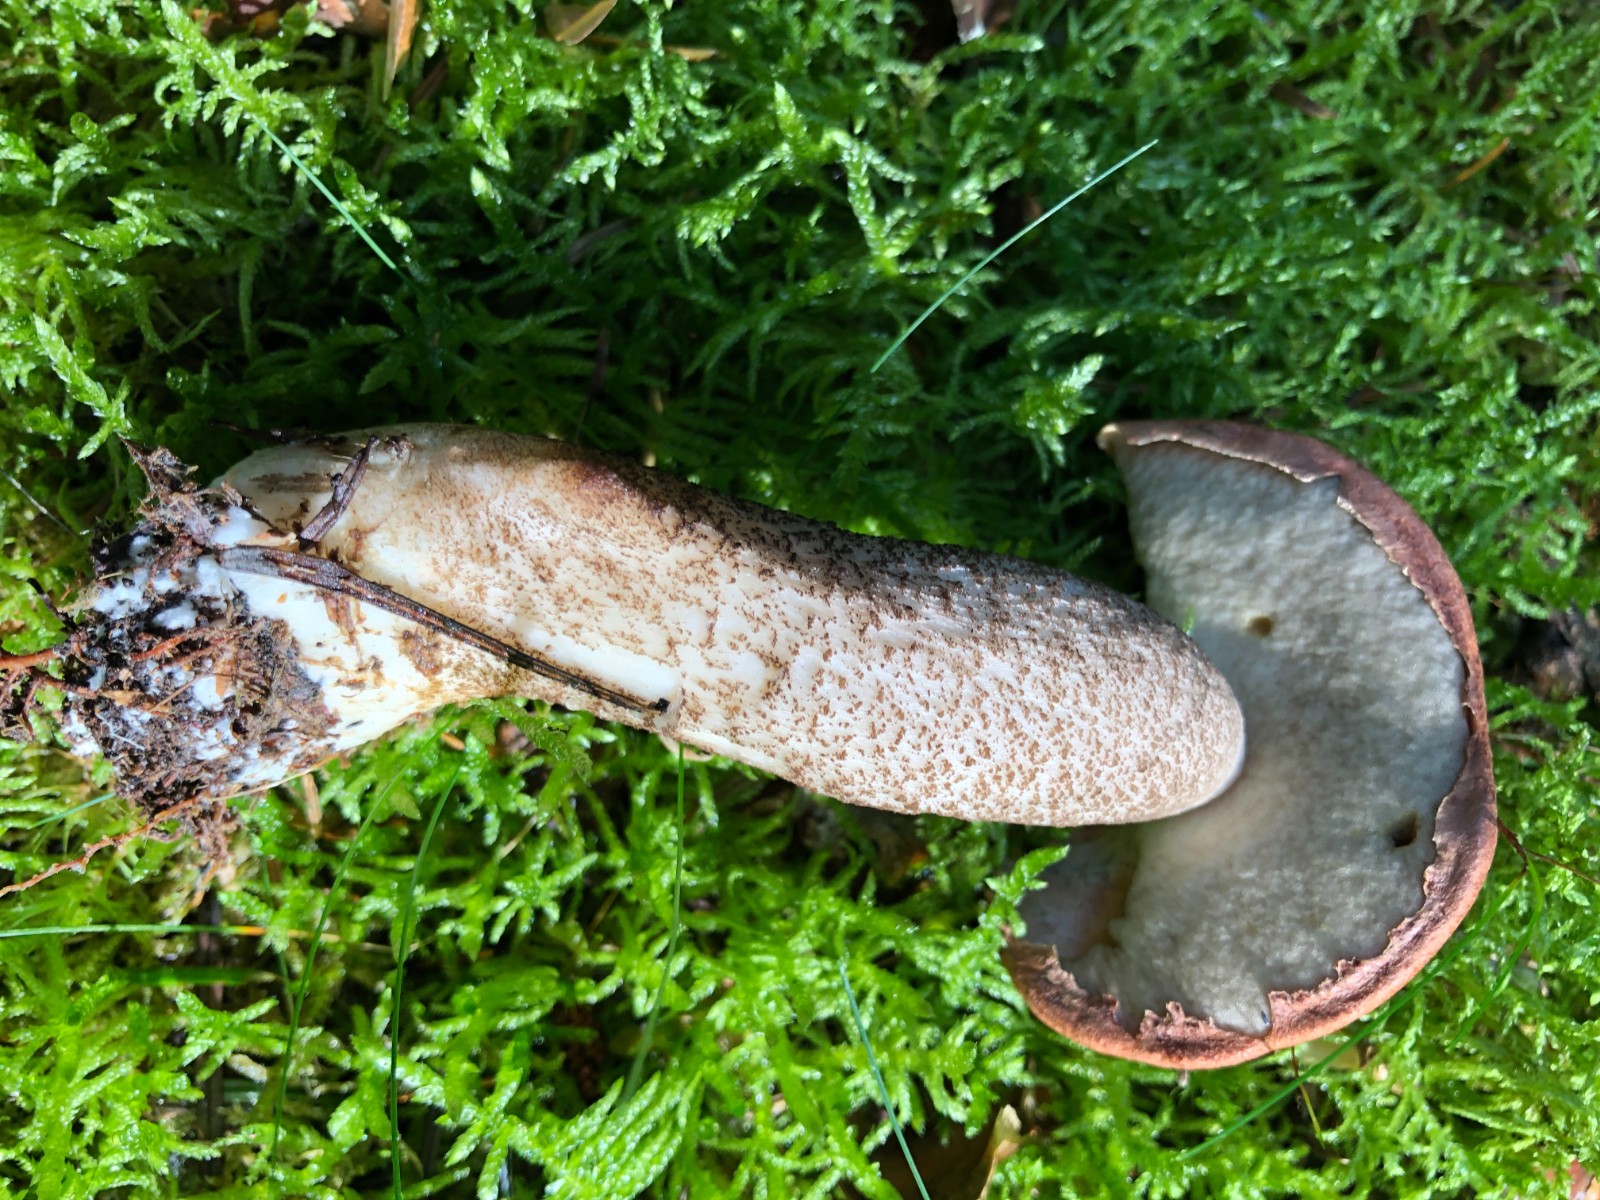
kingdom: Fungi
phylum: Basidiomycota
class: Agaricomycetes
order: Boletales
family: Boletaceae
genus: Leccinum
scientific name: Leccinum vulpinum
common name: fyrre-skælrørhat
